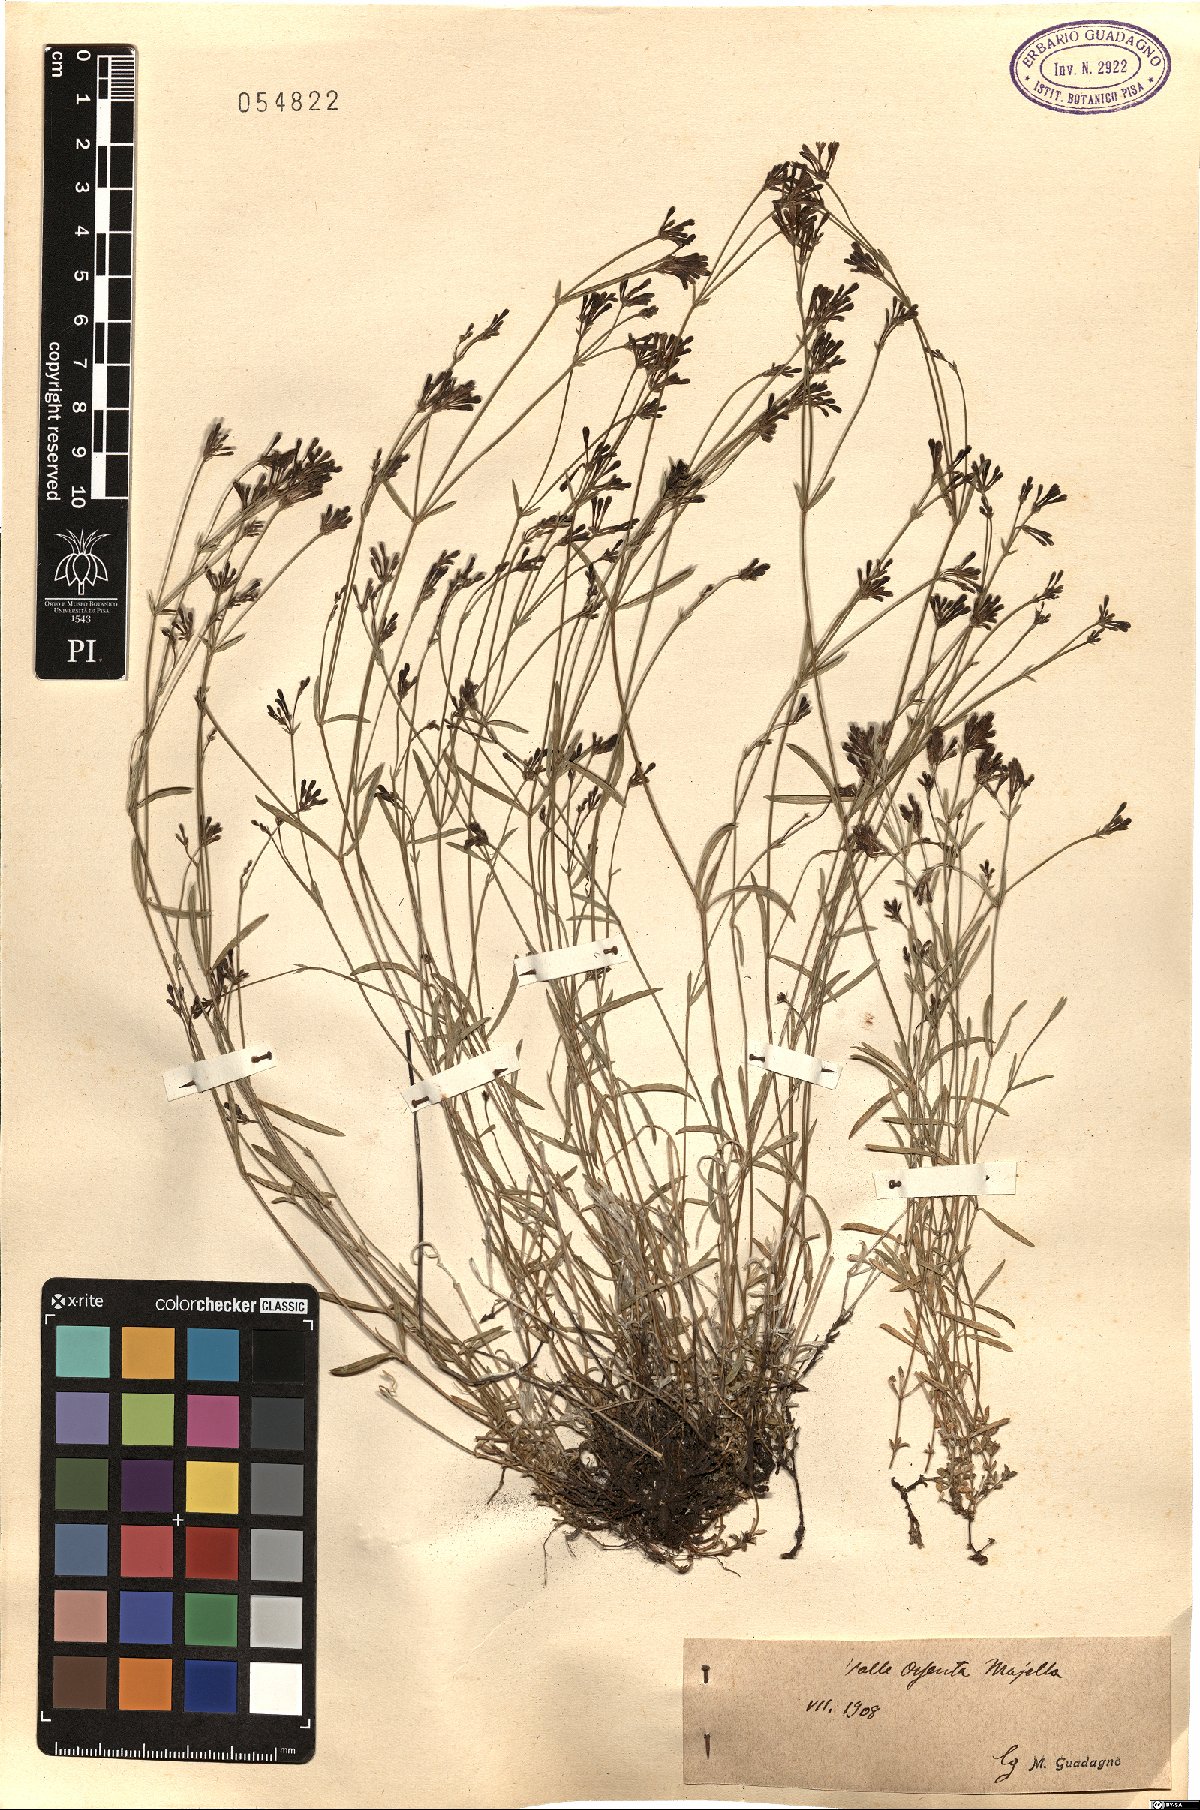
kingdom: Plantae
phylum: Tracheophyta
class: Magnoliopsida
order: Gentianales
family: Rubiaceae
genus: Asperula
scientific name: Asperula
